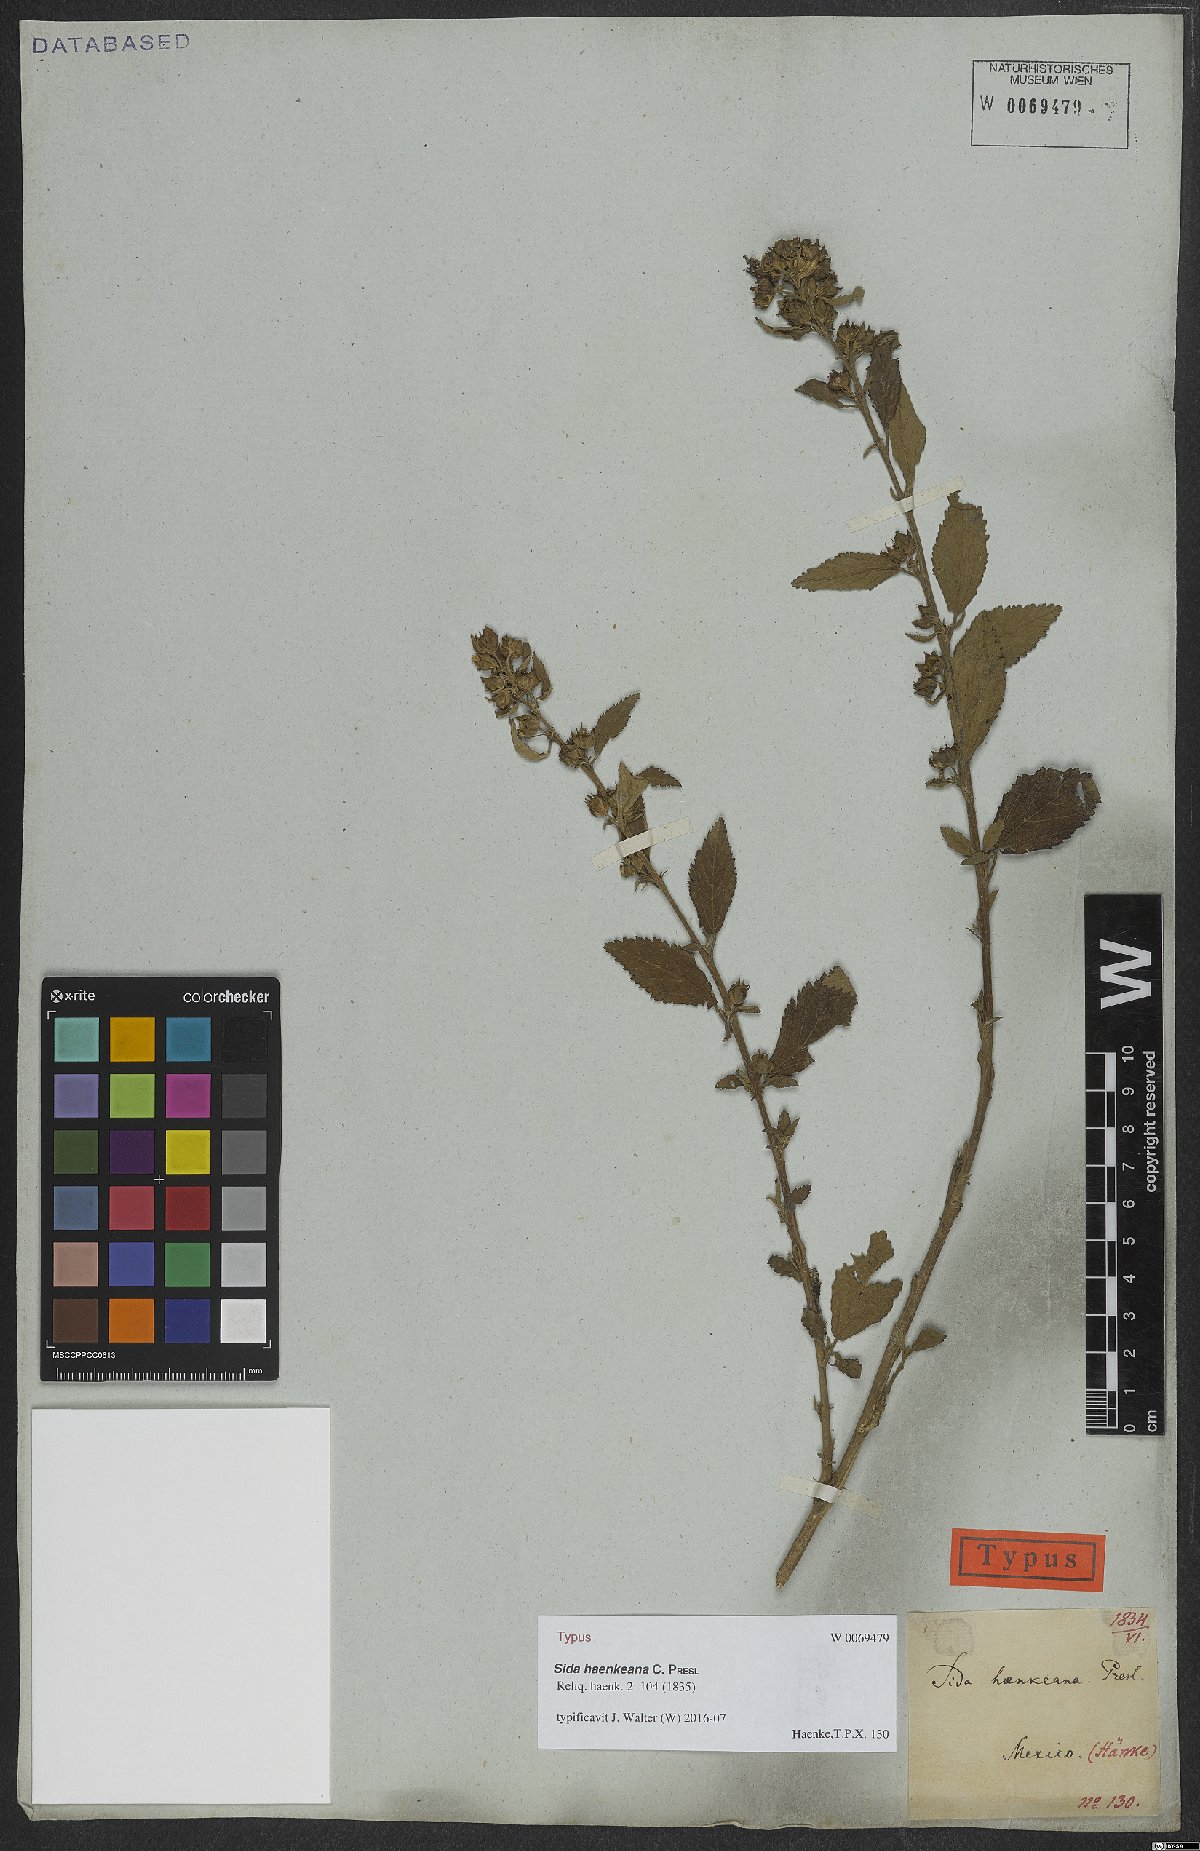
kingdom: Plantae
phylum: Tracheophyta
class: Magnoliopsida
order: Malvales
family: Malvaceae
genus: Sida
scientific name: Sida haenkeana
